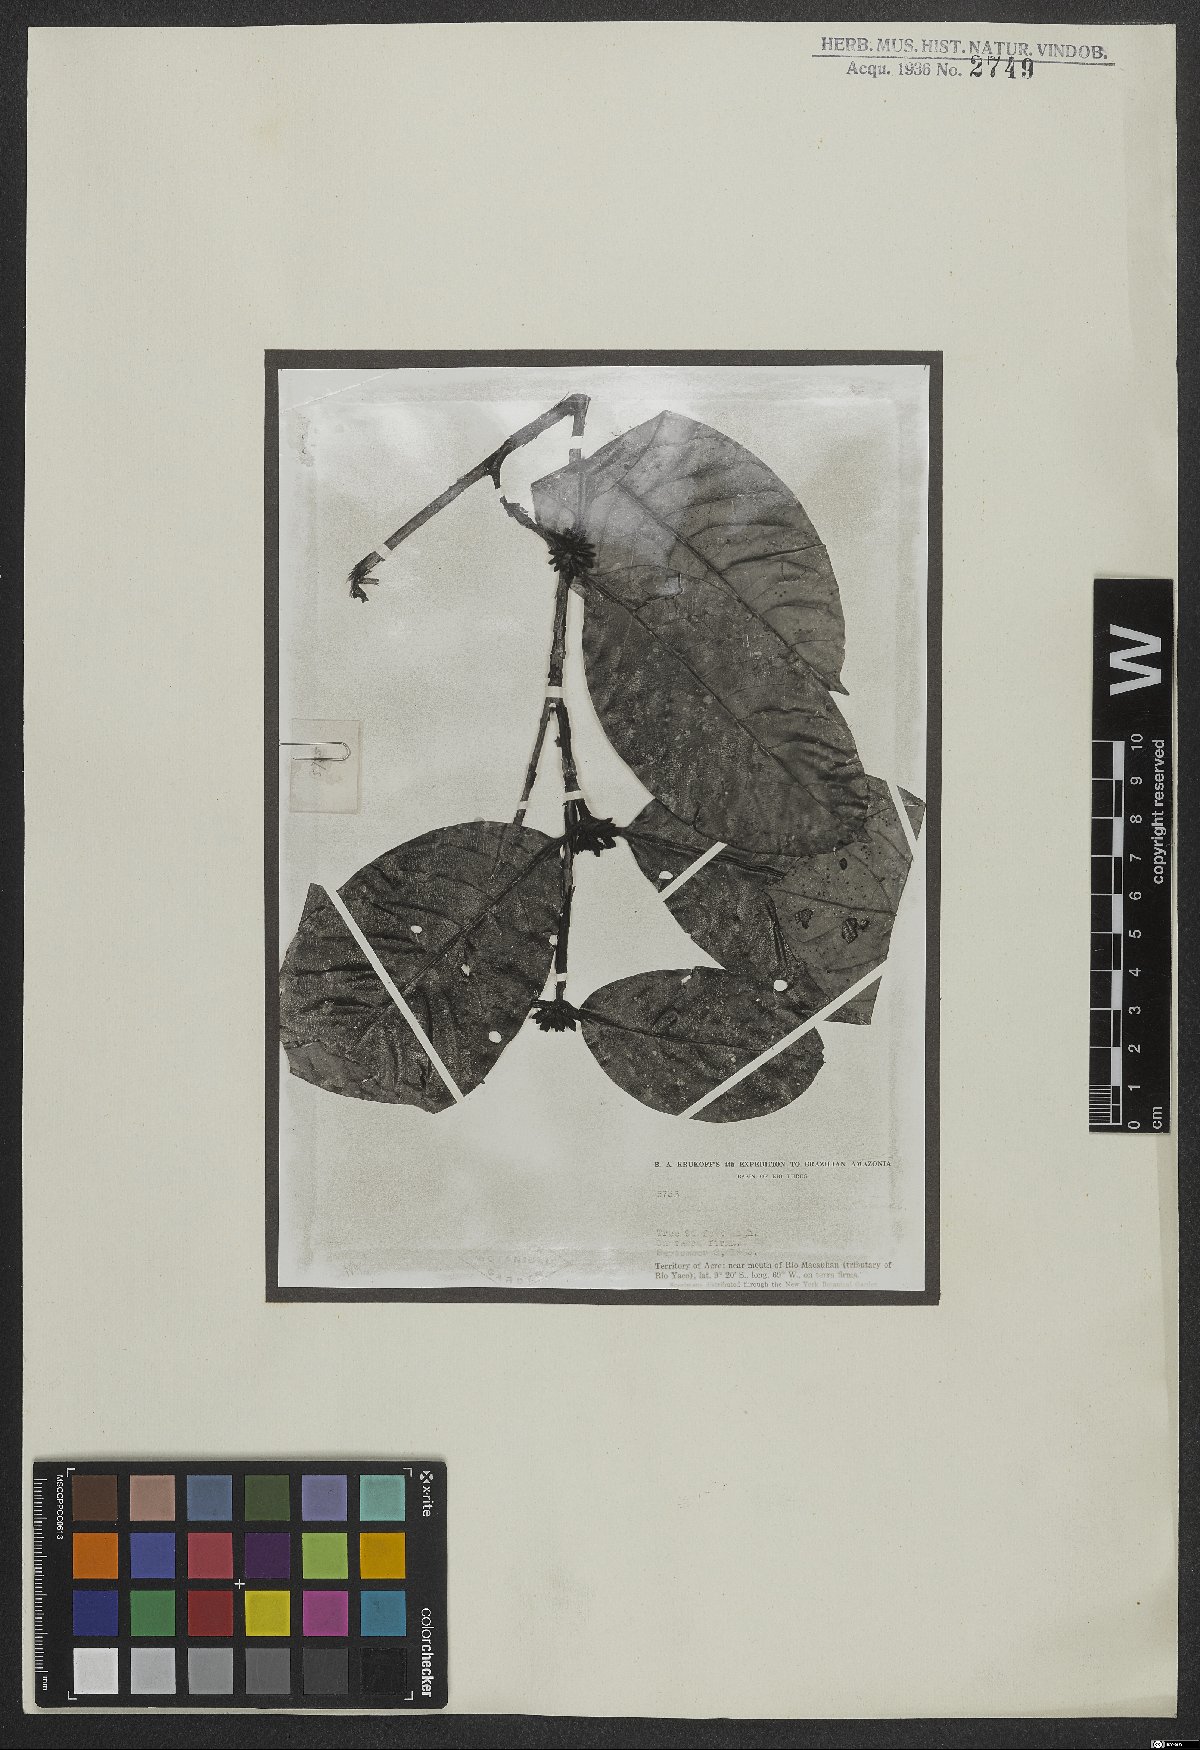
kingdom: Plantae
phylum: Tracheophyta
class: Magnoliopsida
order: Gentianales
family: Rubiaceae
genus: Cordiera
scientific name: Cordiera hadrantha
